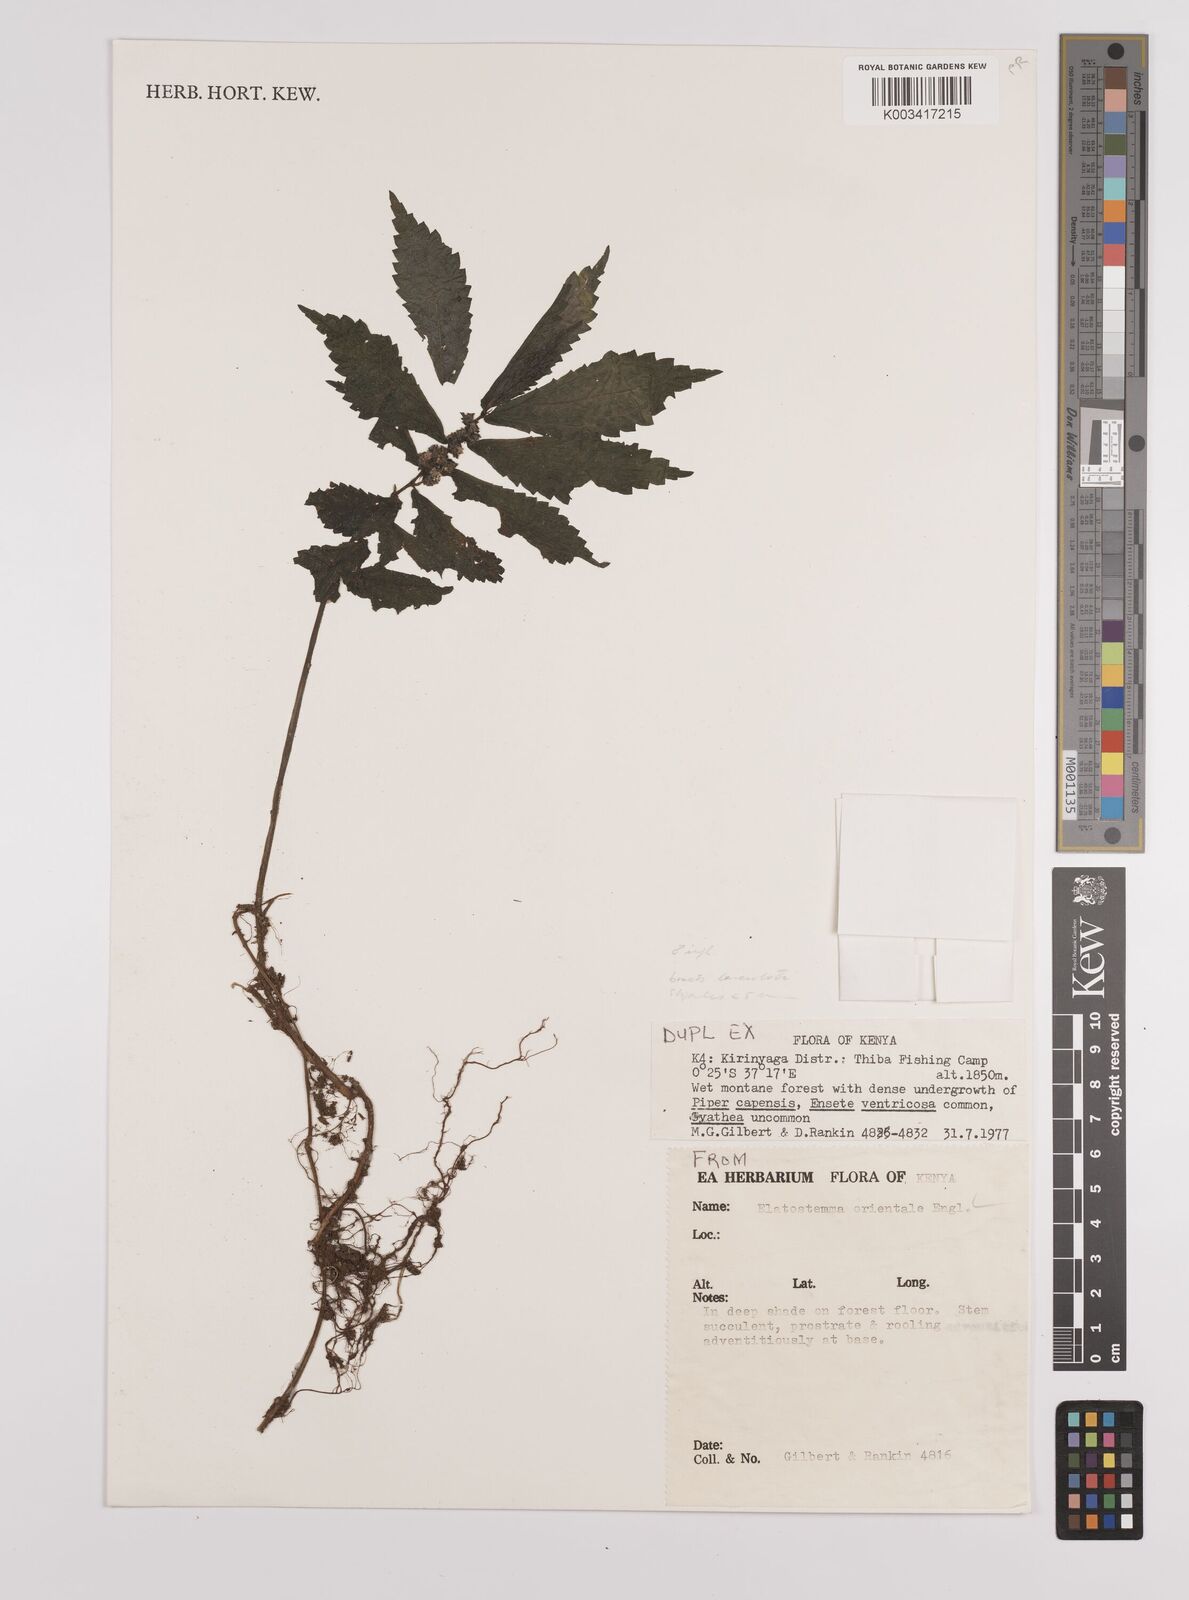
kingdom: Plantae
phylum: Tracheophyta
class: Magnoliopsida
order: Rosales
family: Urticaceae
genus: Elatostema
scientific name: Elatostema monticola
